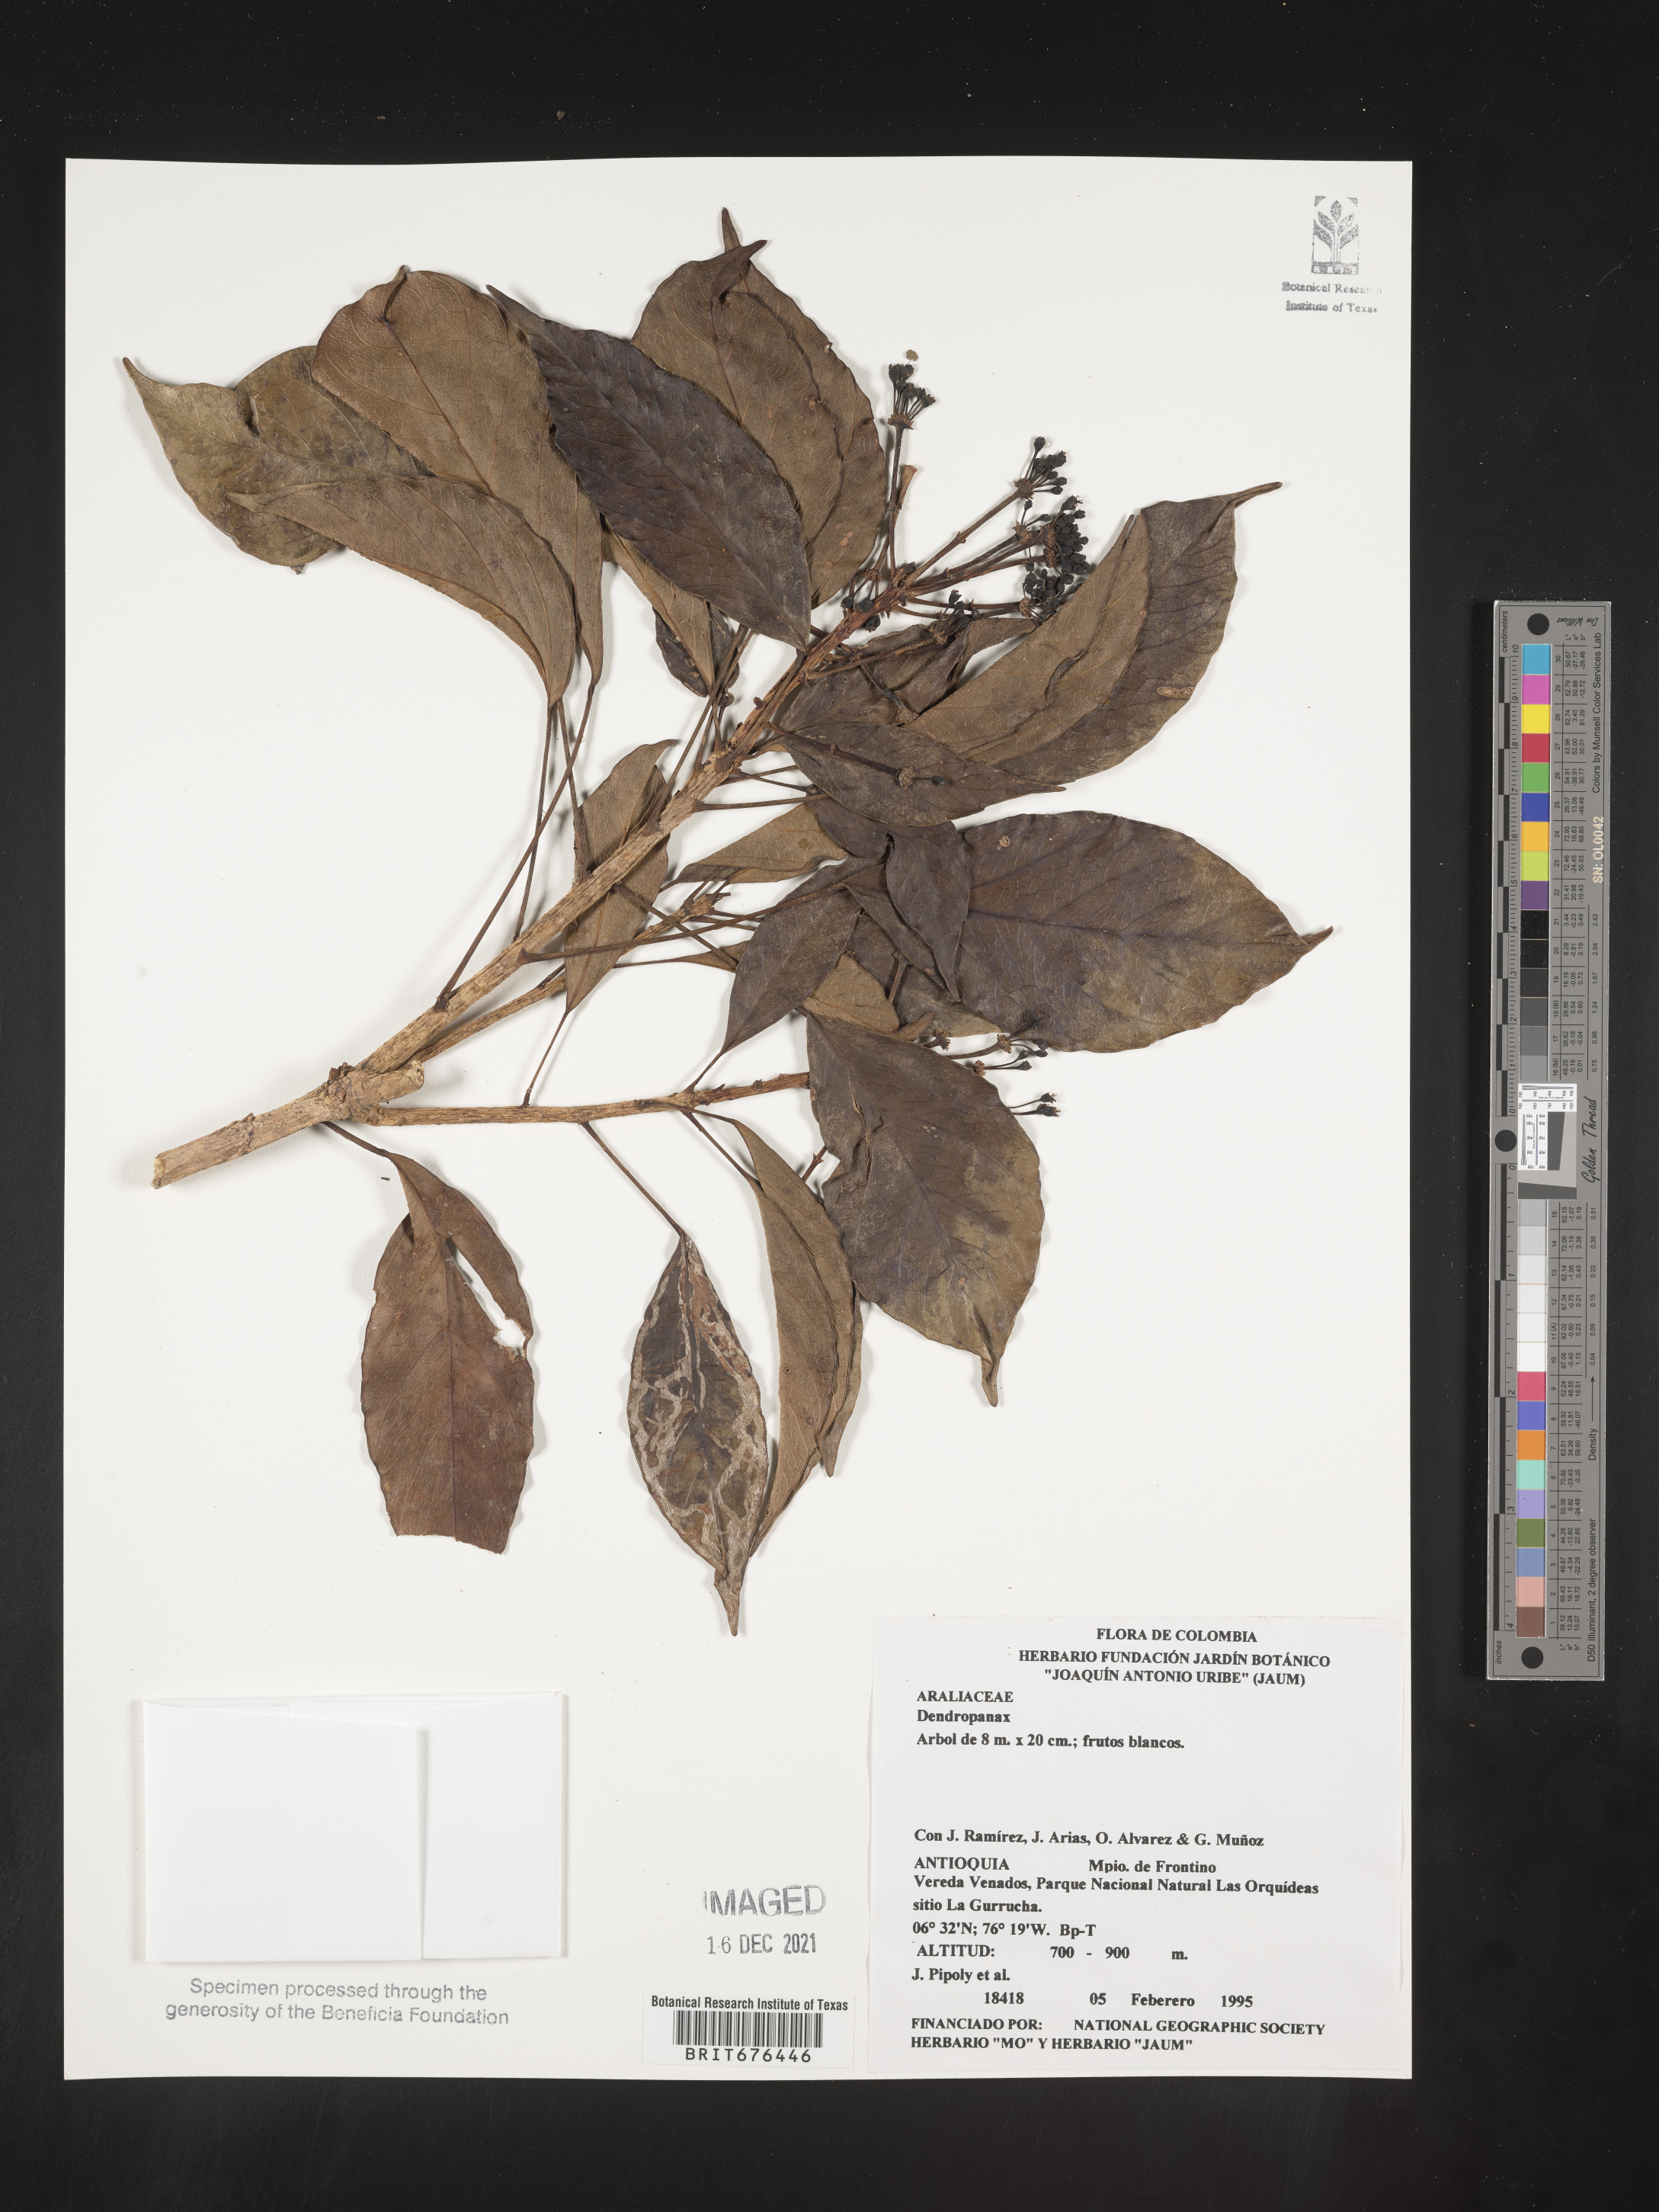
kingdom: Plantae
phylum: Tracheophyta
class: Magnoliopsida
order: Apiales
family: Araliaceae
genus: Dendropanax
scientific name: Dendropanax
